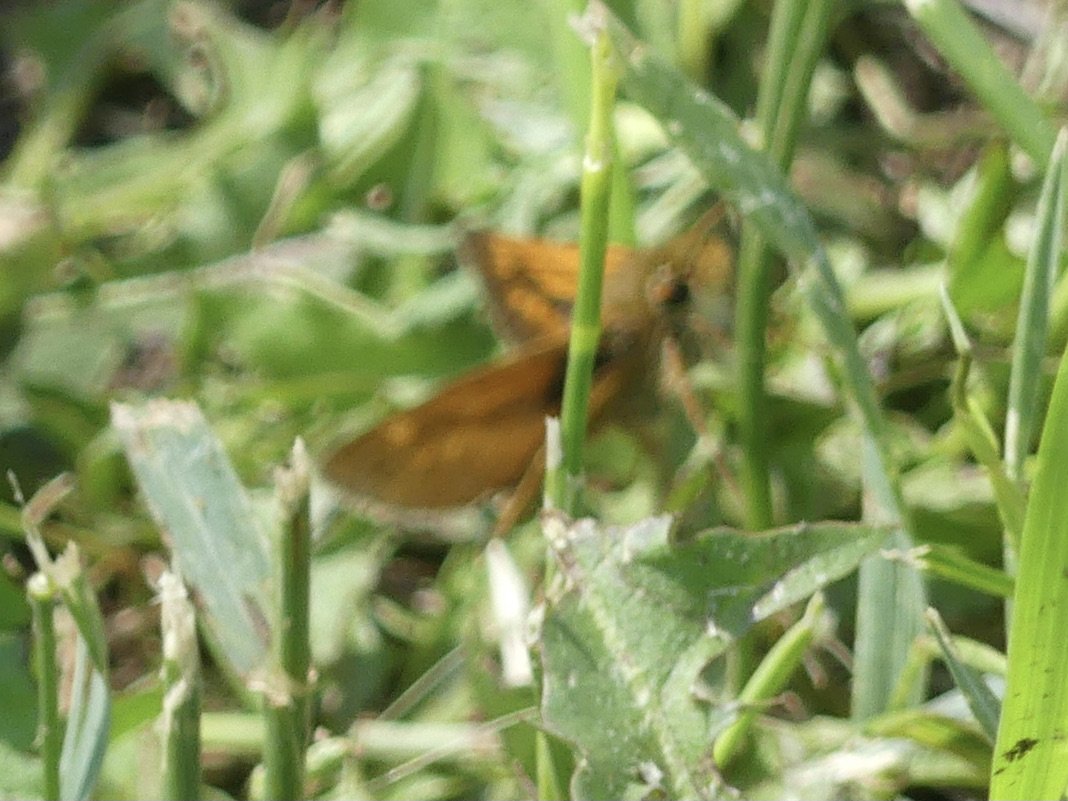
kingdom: Animalia
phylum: Arthropoda
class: Insecta
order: Lepidoptera
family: Hesperiidae
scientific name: Hesperiidae
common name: Skippers
